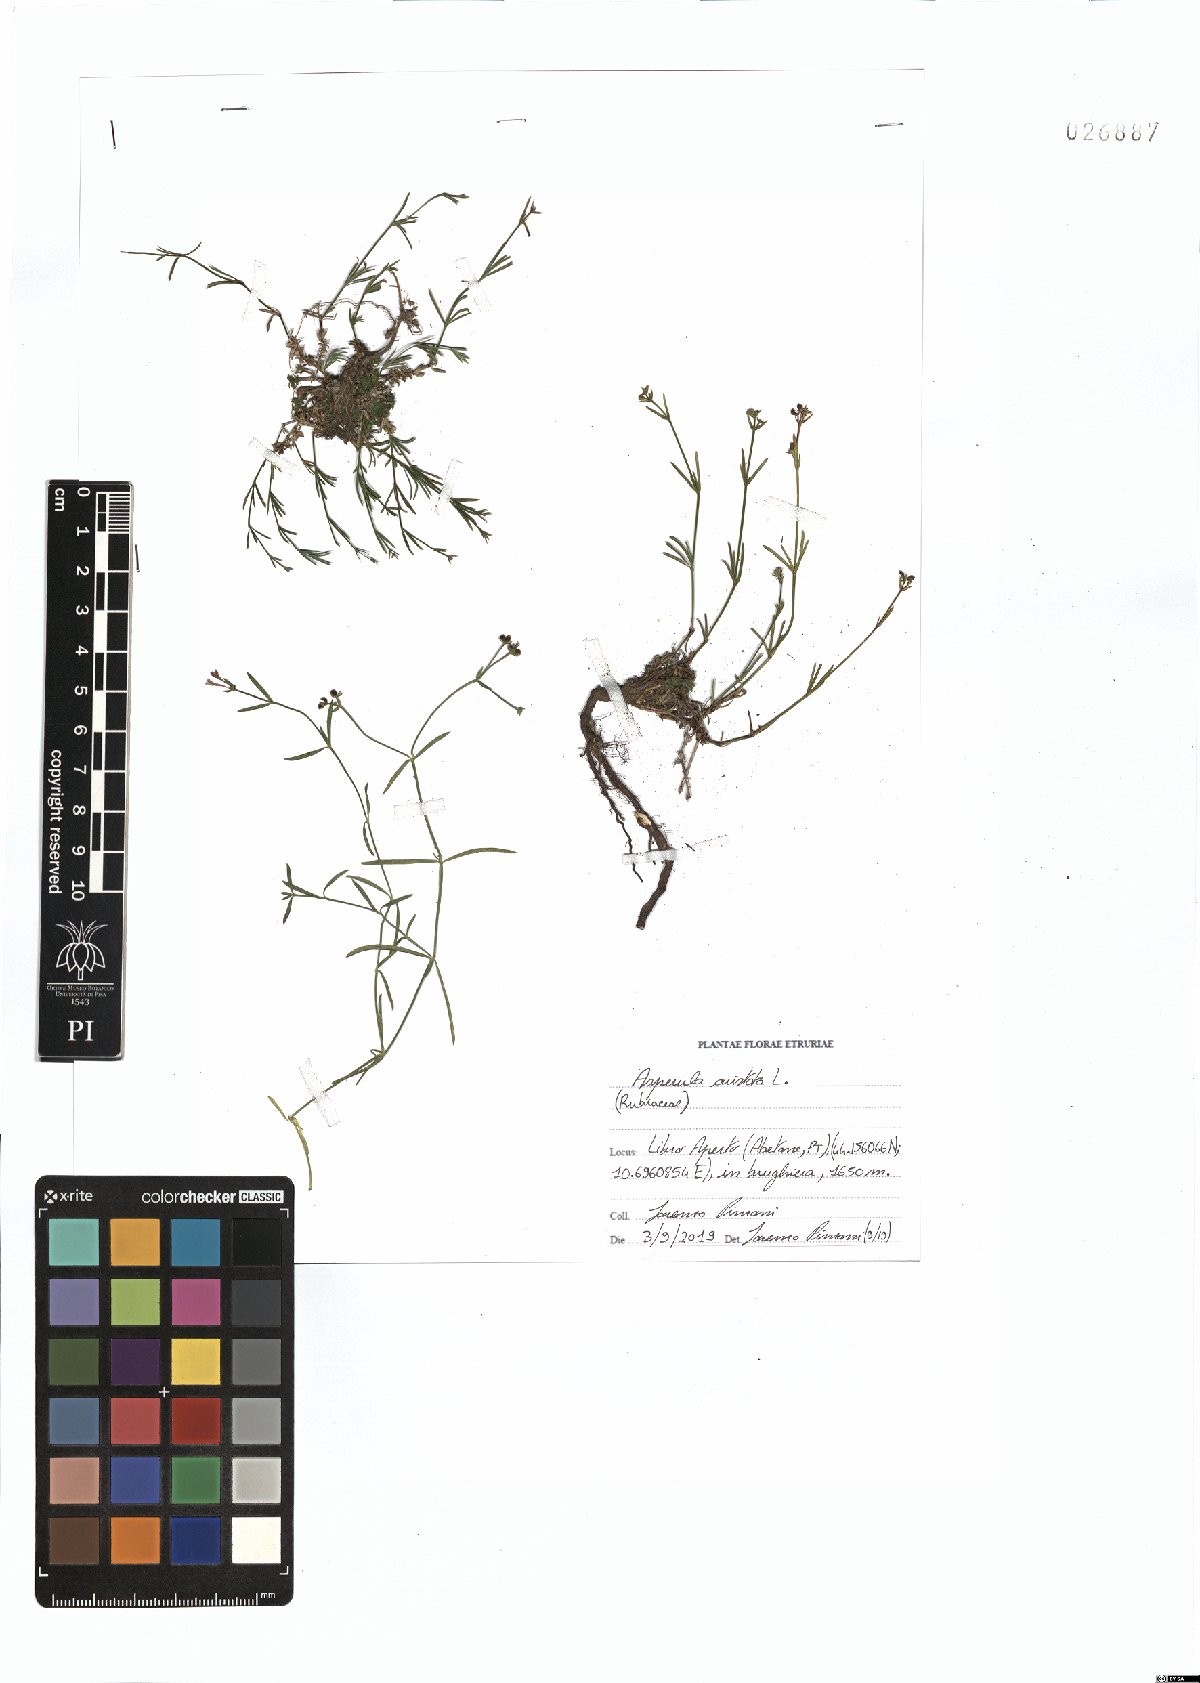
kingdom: Plantae
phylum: Tracheophyta
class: Magnoliopsida
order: Gentianales
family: Rubiaceae
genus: Cynanchica
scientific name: Cynanchica aristata
